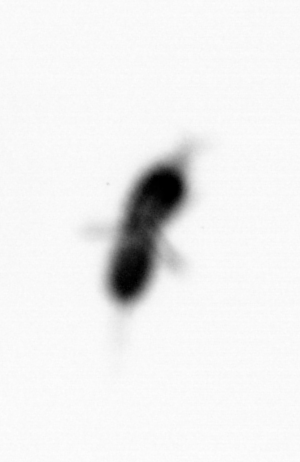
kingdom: Animalia
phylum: Arthropoda
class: Copepoda
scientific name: Copepoda
